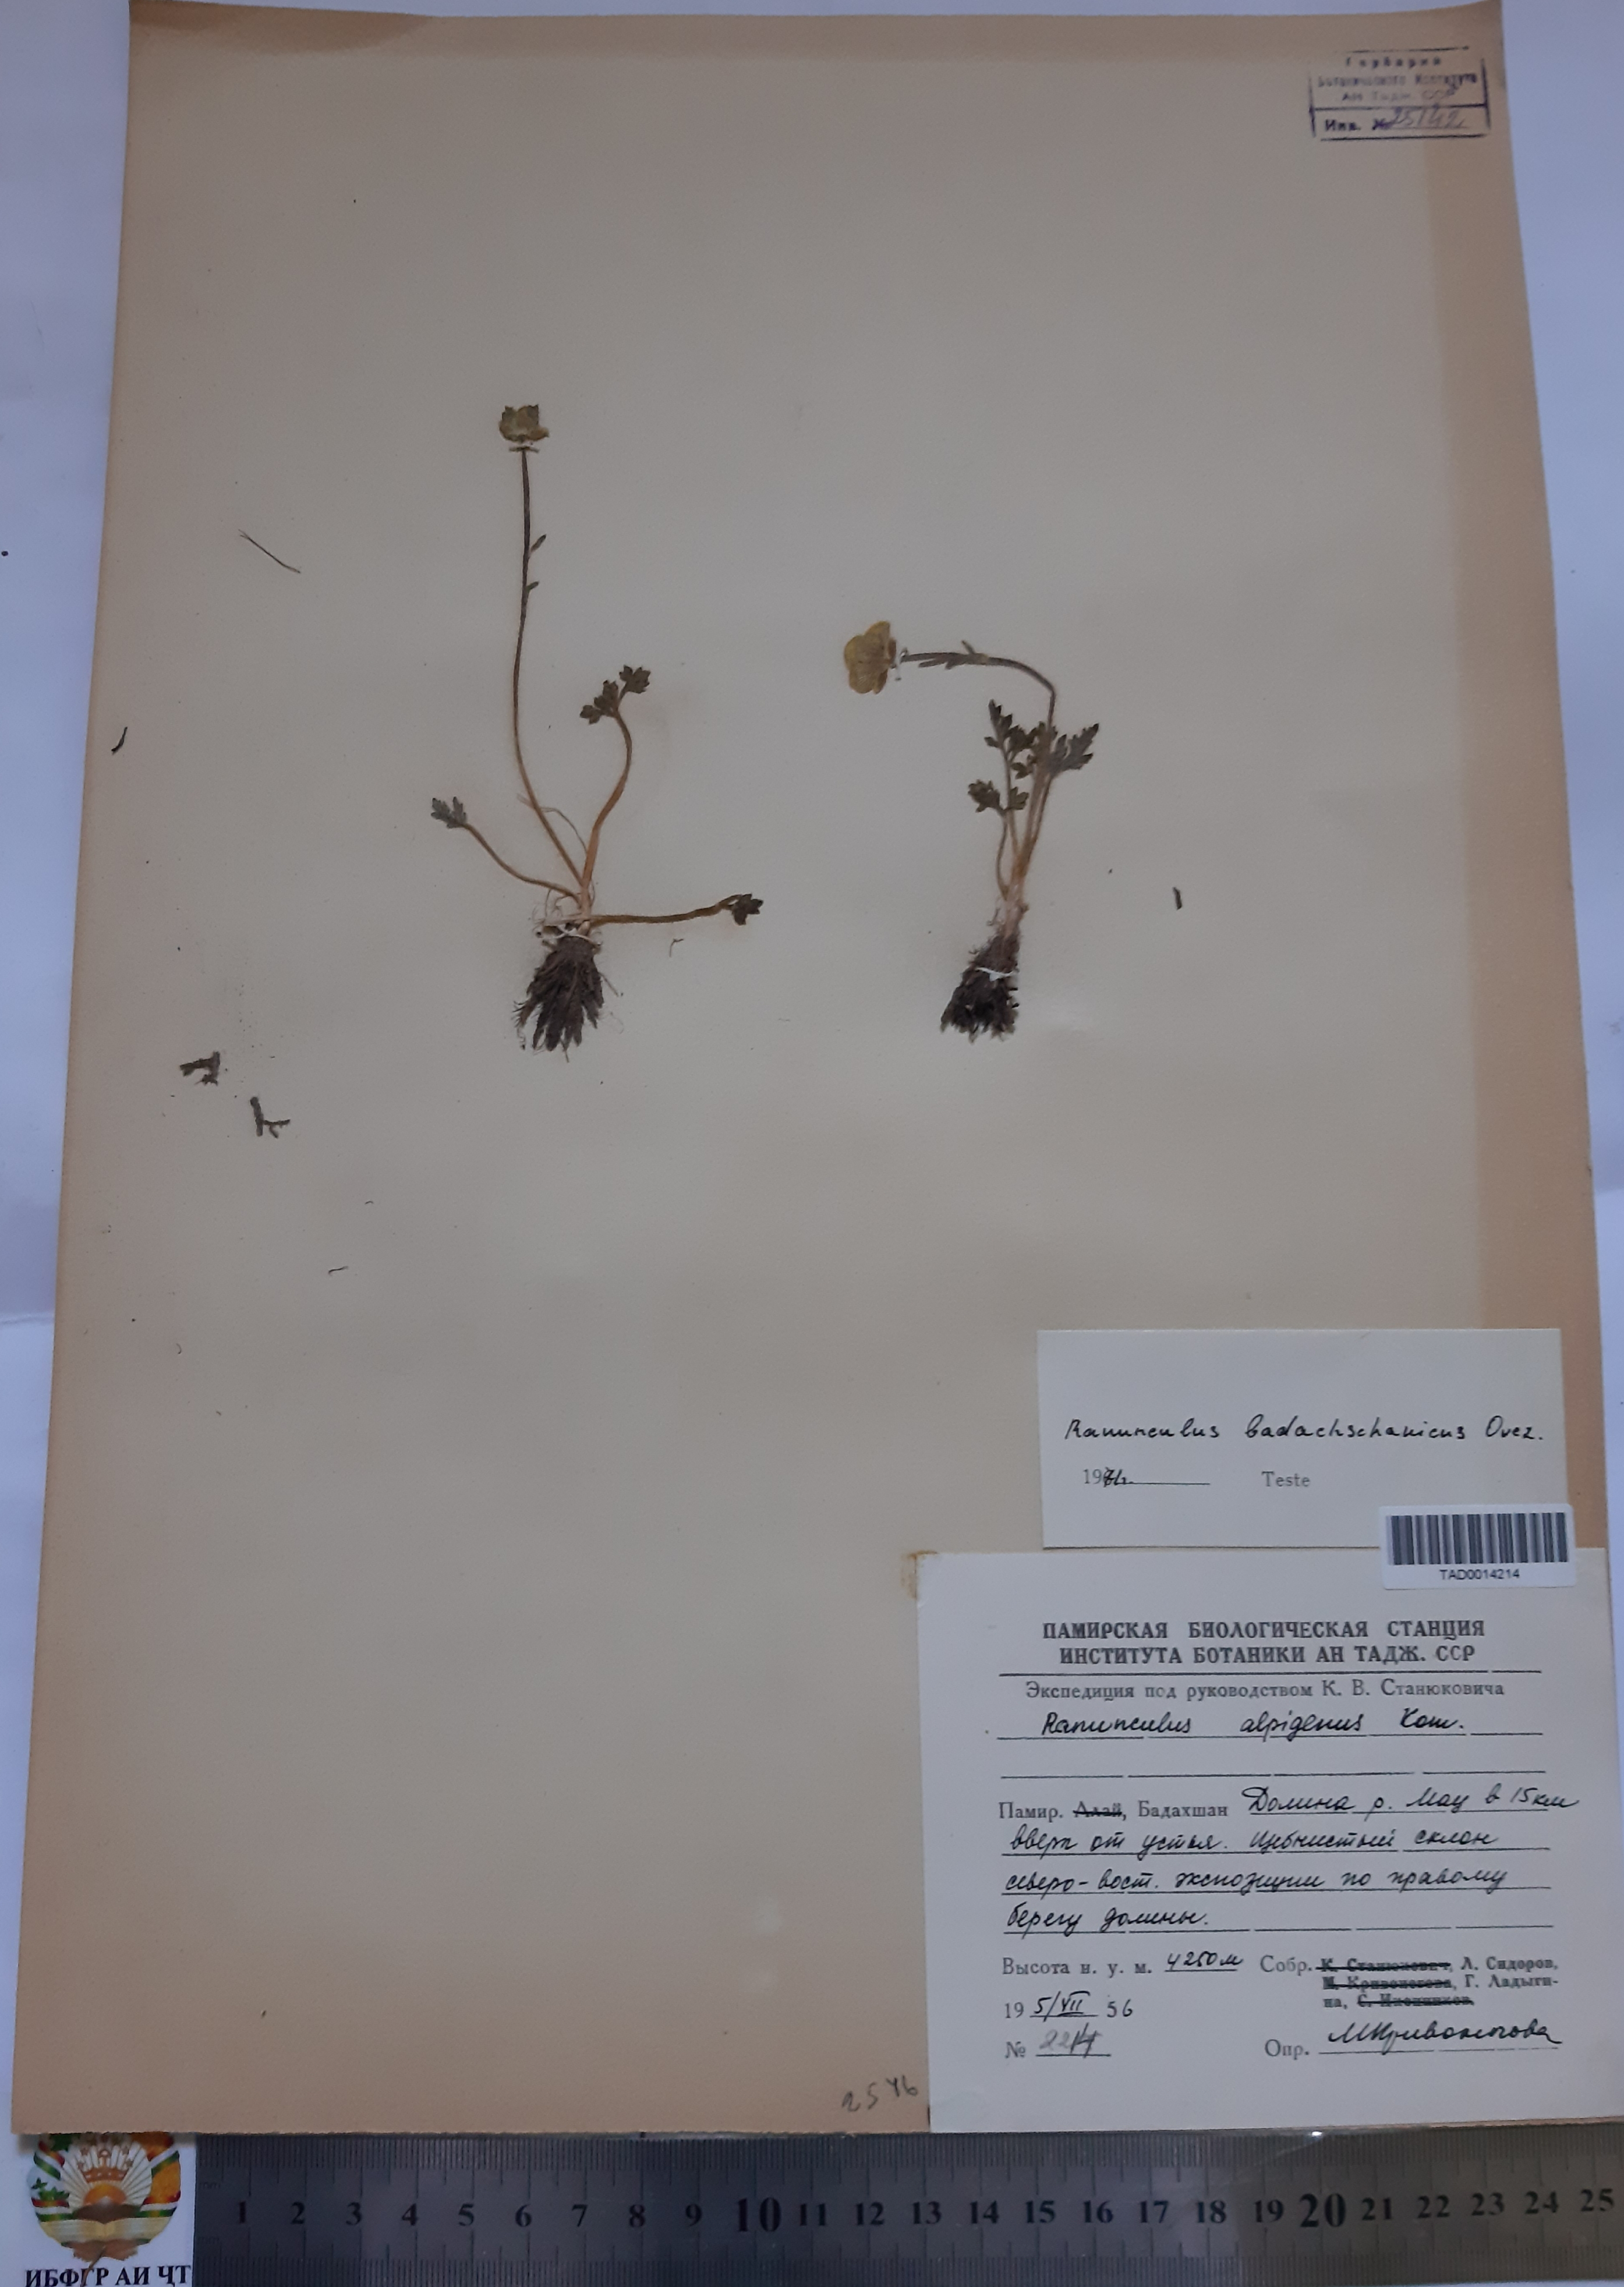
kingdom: Plantae
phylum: Tracheophyta
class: Magnoliopsida
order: Ranunculales
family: Ranunculaceae
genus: Ranunculus
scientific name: Ranunculus alpigenus
